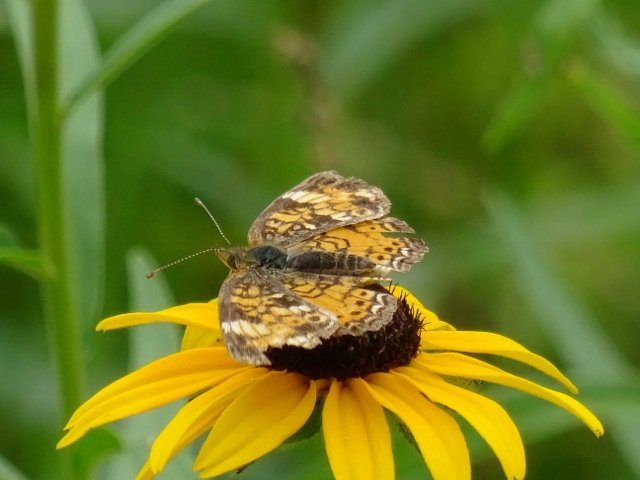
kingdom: Animalia
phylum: Arthropoda
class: Insecta
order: Lepidoptera
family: Nymphalidae
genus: Phyciodes
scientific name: Phyciodes tharos
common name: Pearl Crescent
